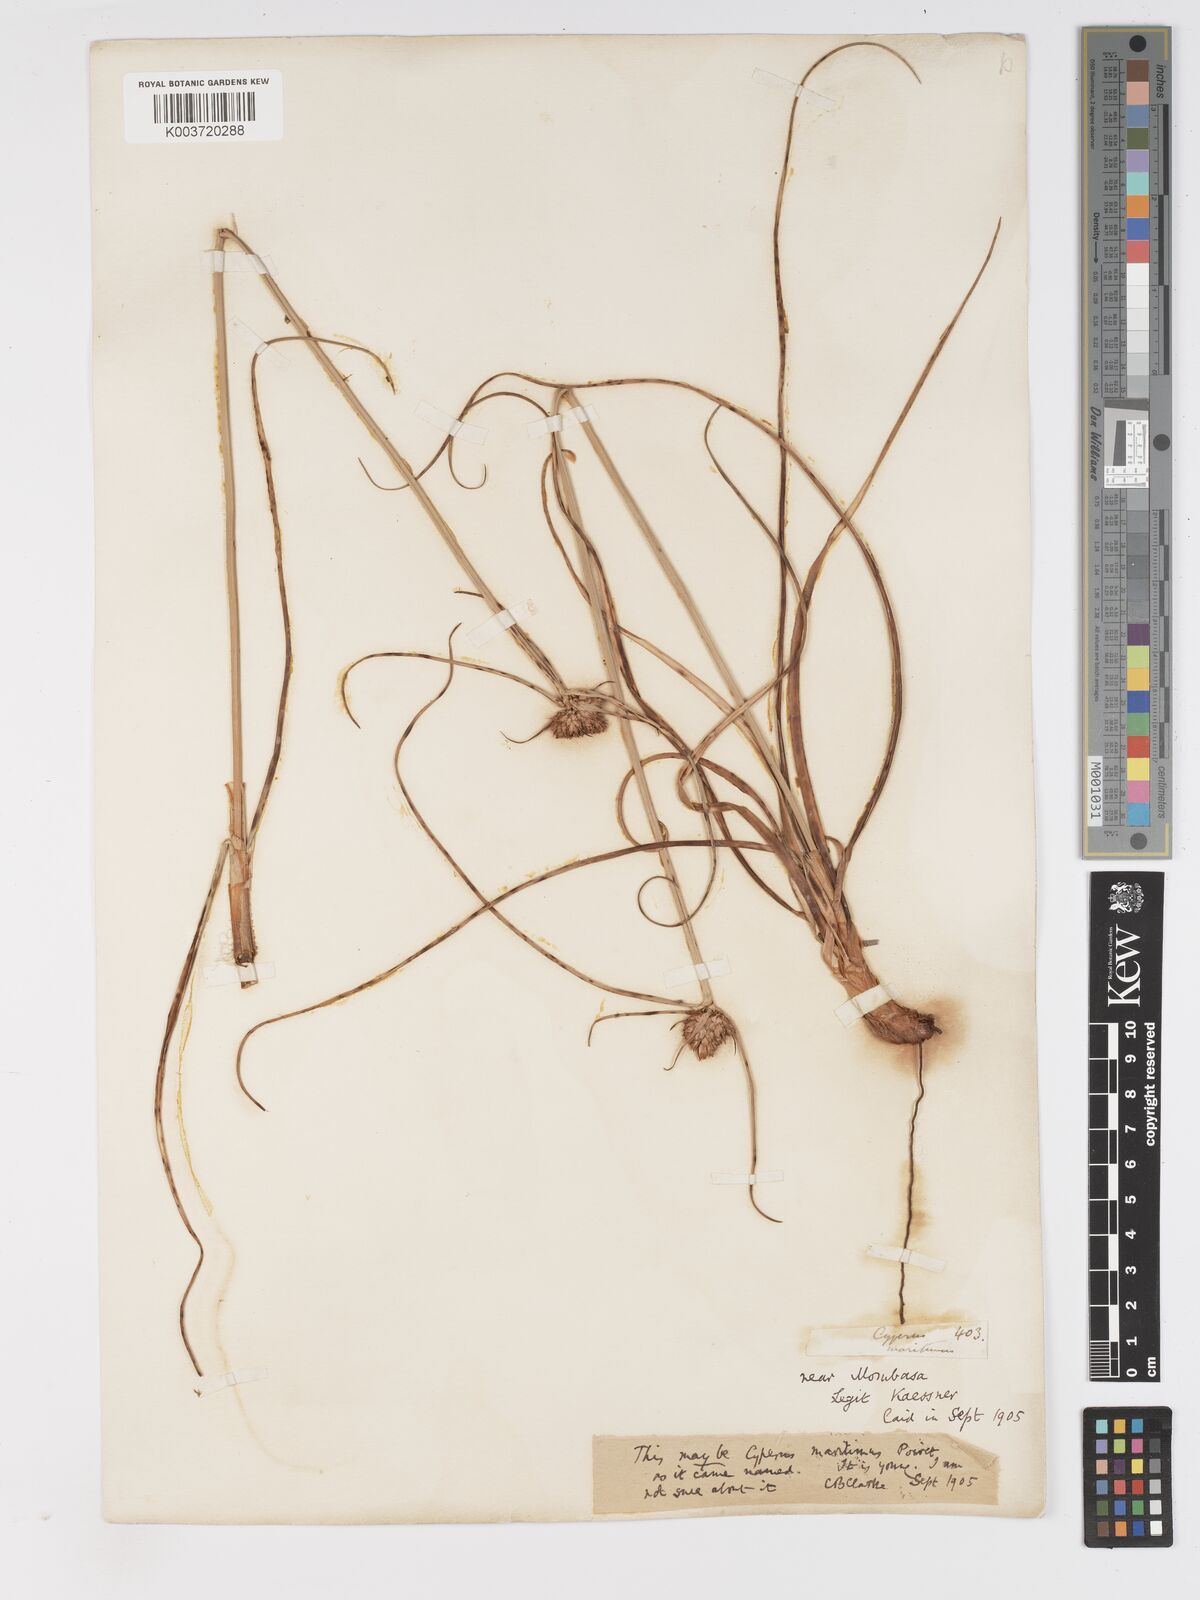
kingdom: Plantae
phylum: Tracheophyta
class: Liliopsida
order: Poales
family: Cyperaceae
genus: Cyperus
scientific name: Cyperus
